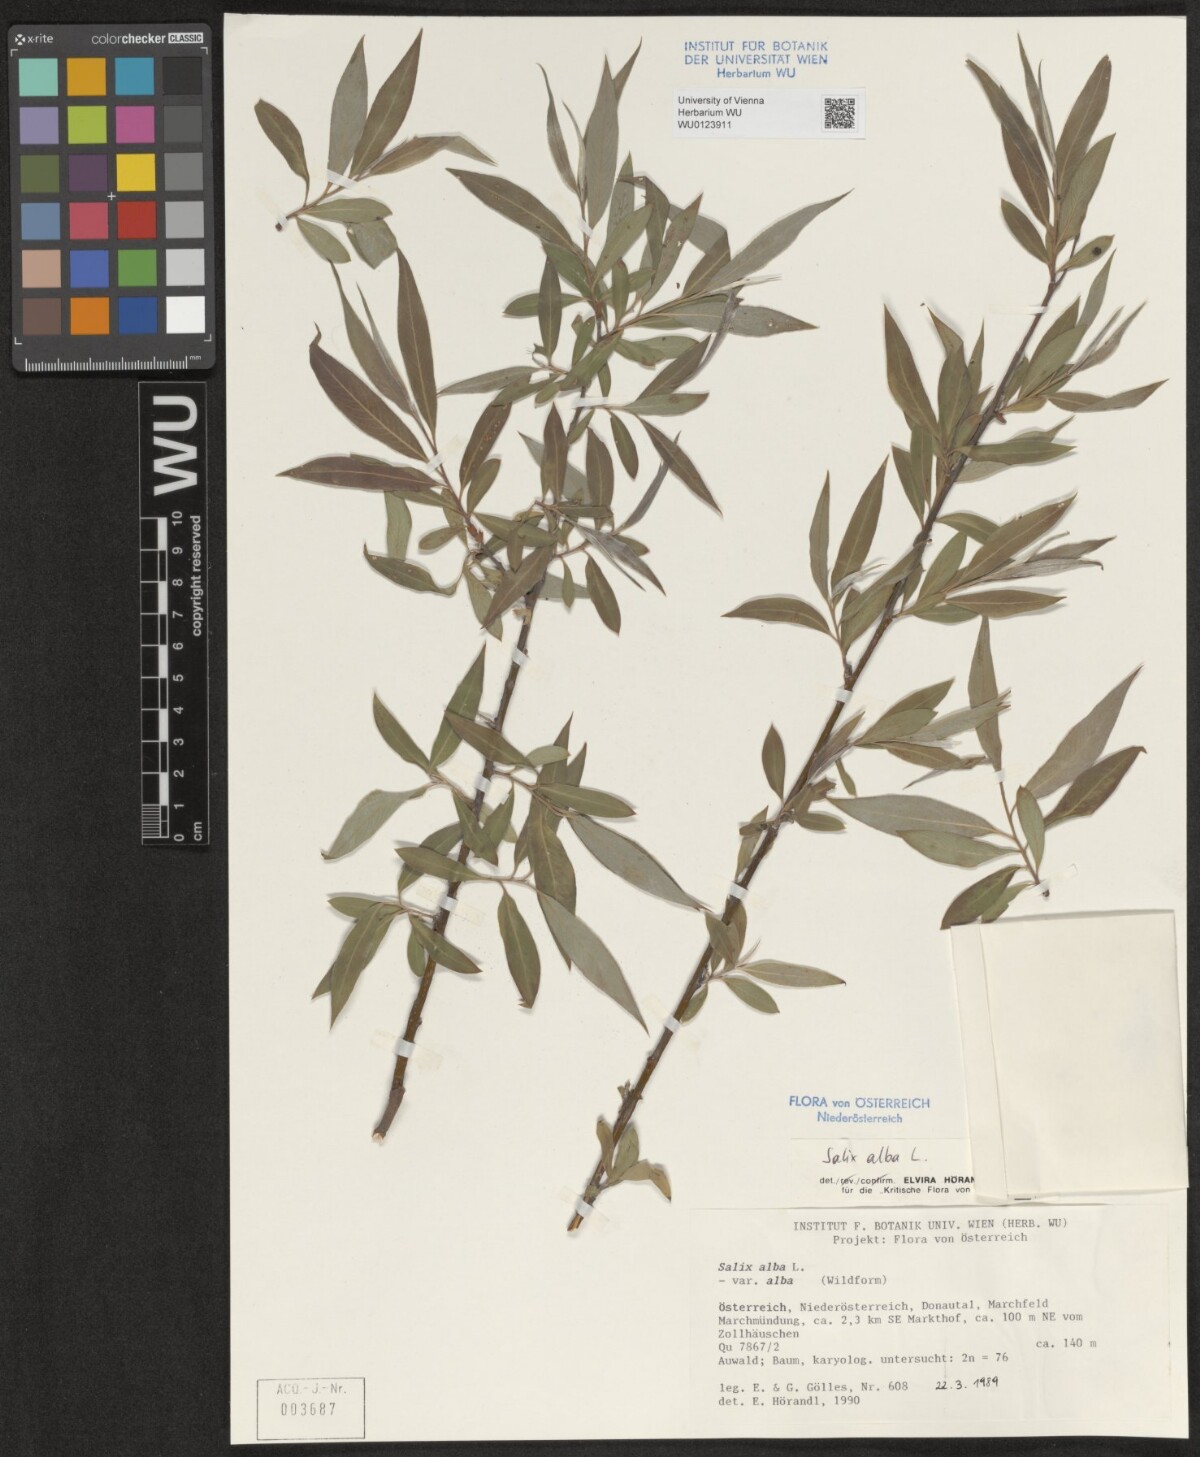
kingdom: Plantae
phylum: Tracheophyta
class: Magnoliopsida
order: Malpighiales
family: Salicaceae
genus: Salix
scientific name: Salix alba
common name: White willow
